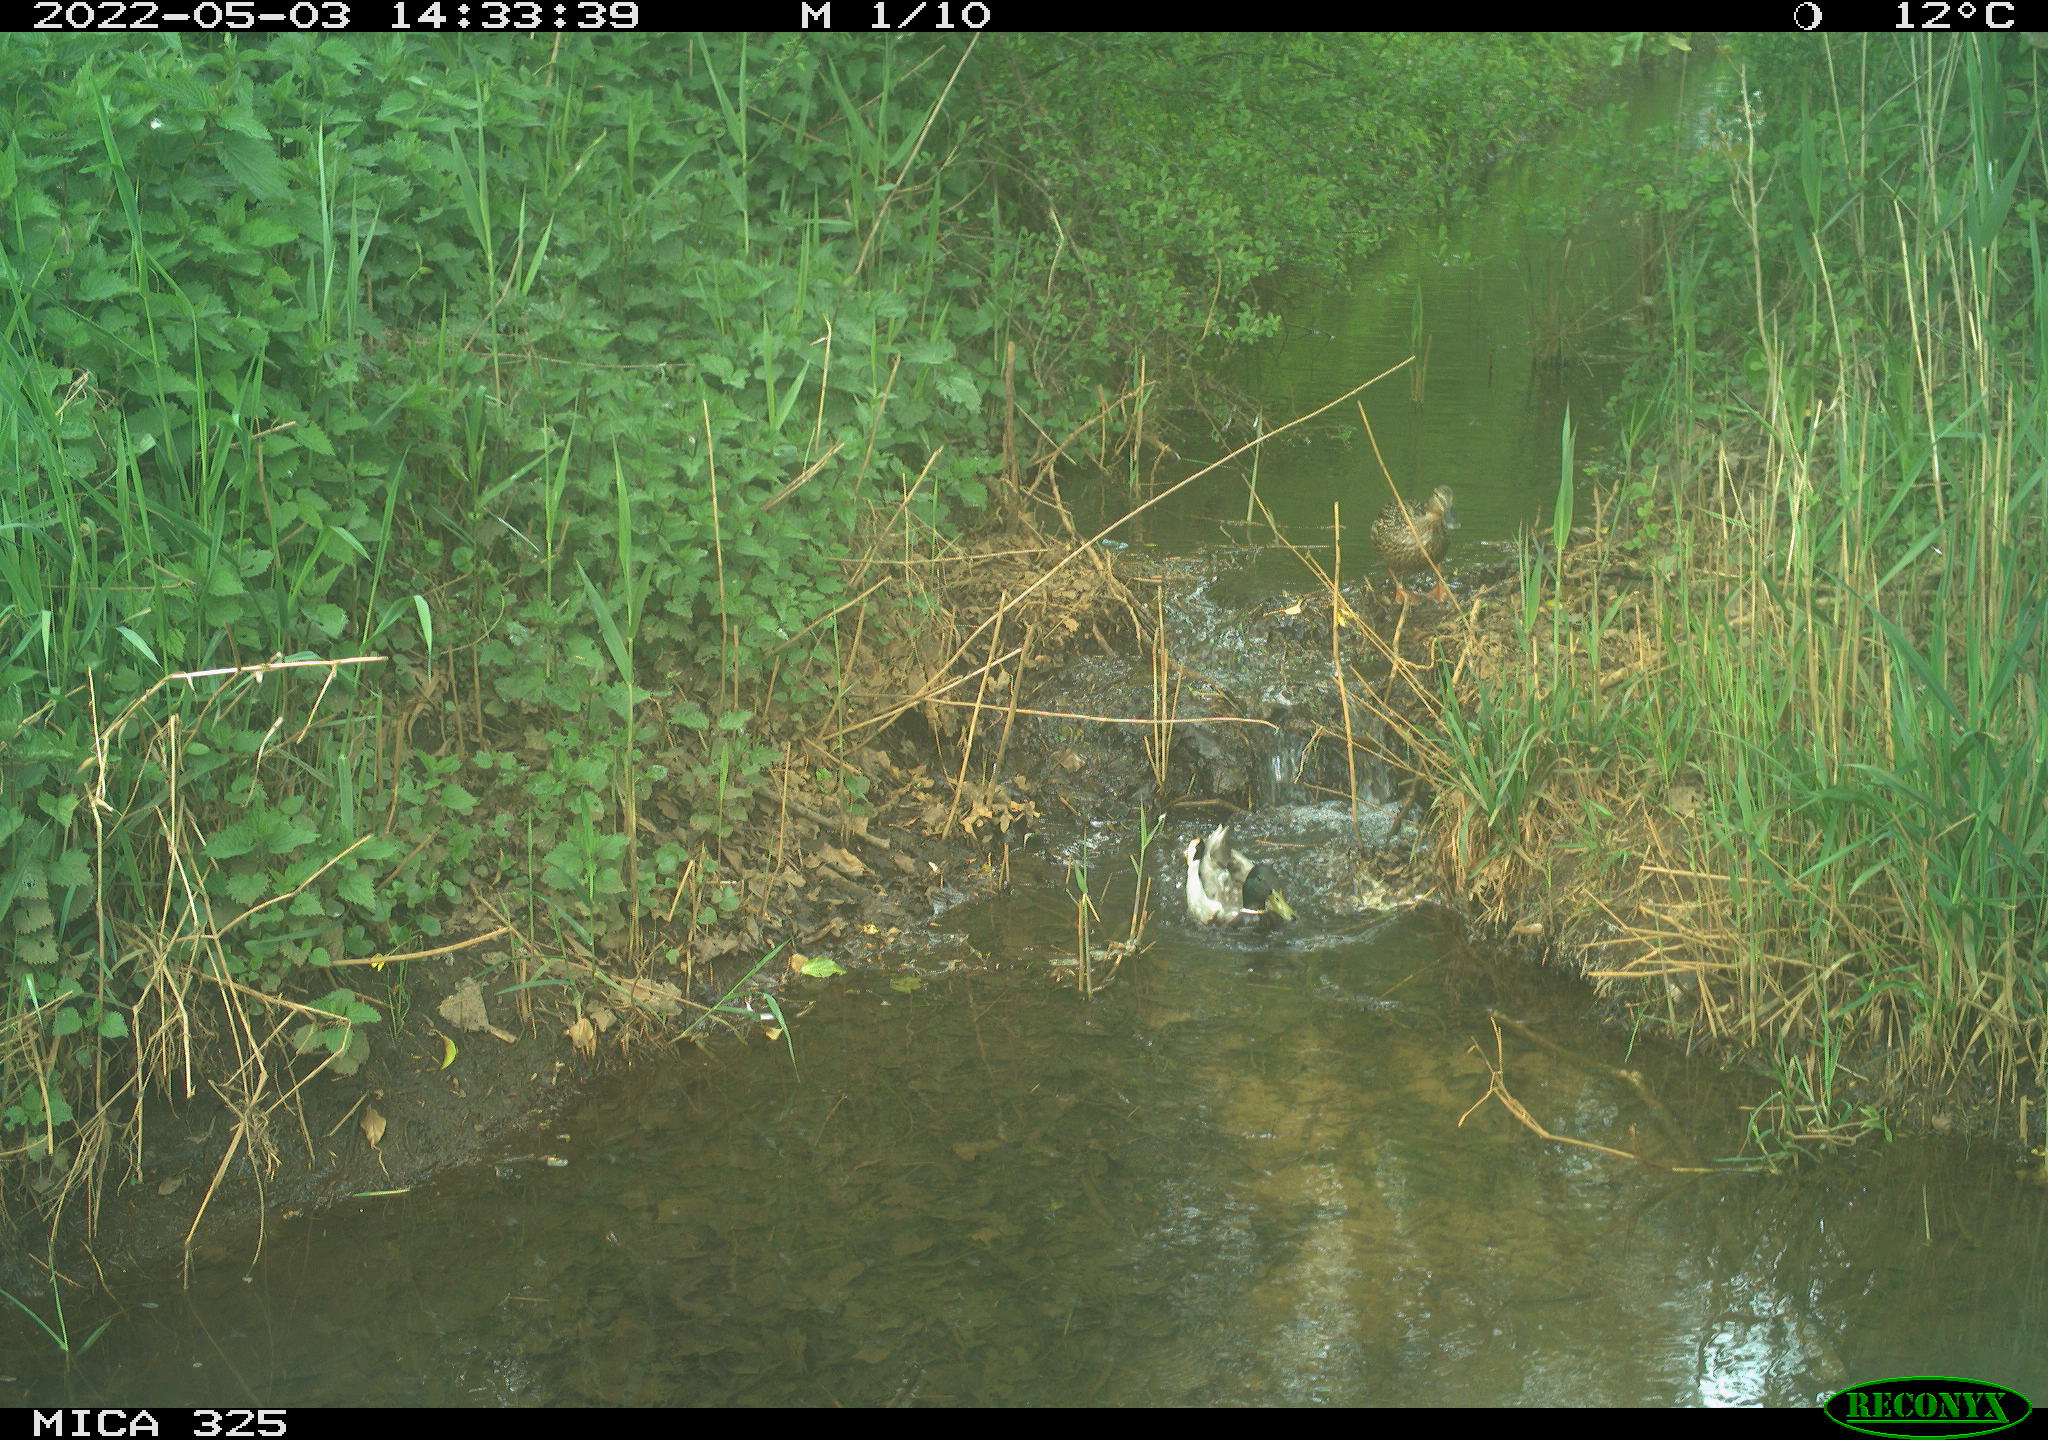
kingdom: Animalia
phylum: Chordata
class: Aves
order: Anseriformes
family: Anatidae
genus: Anas
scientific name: Anas platyrhynchos
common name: Mallard
